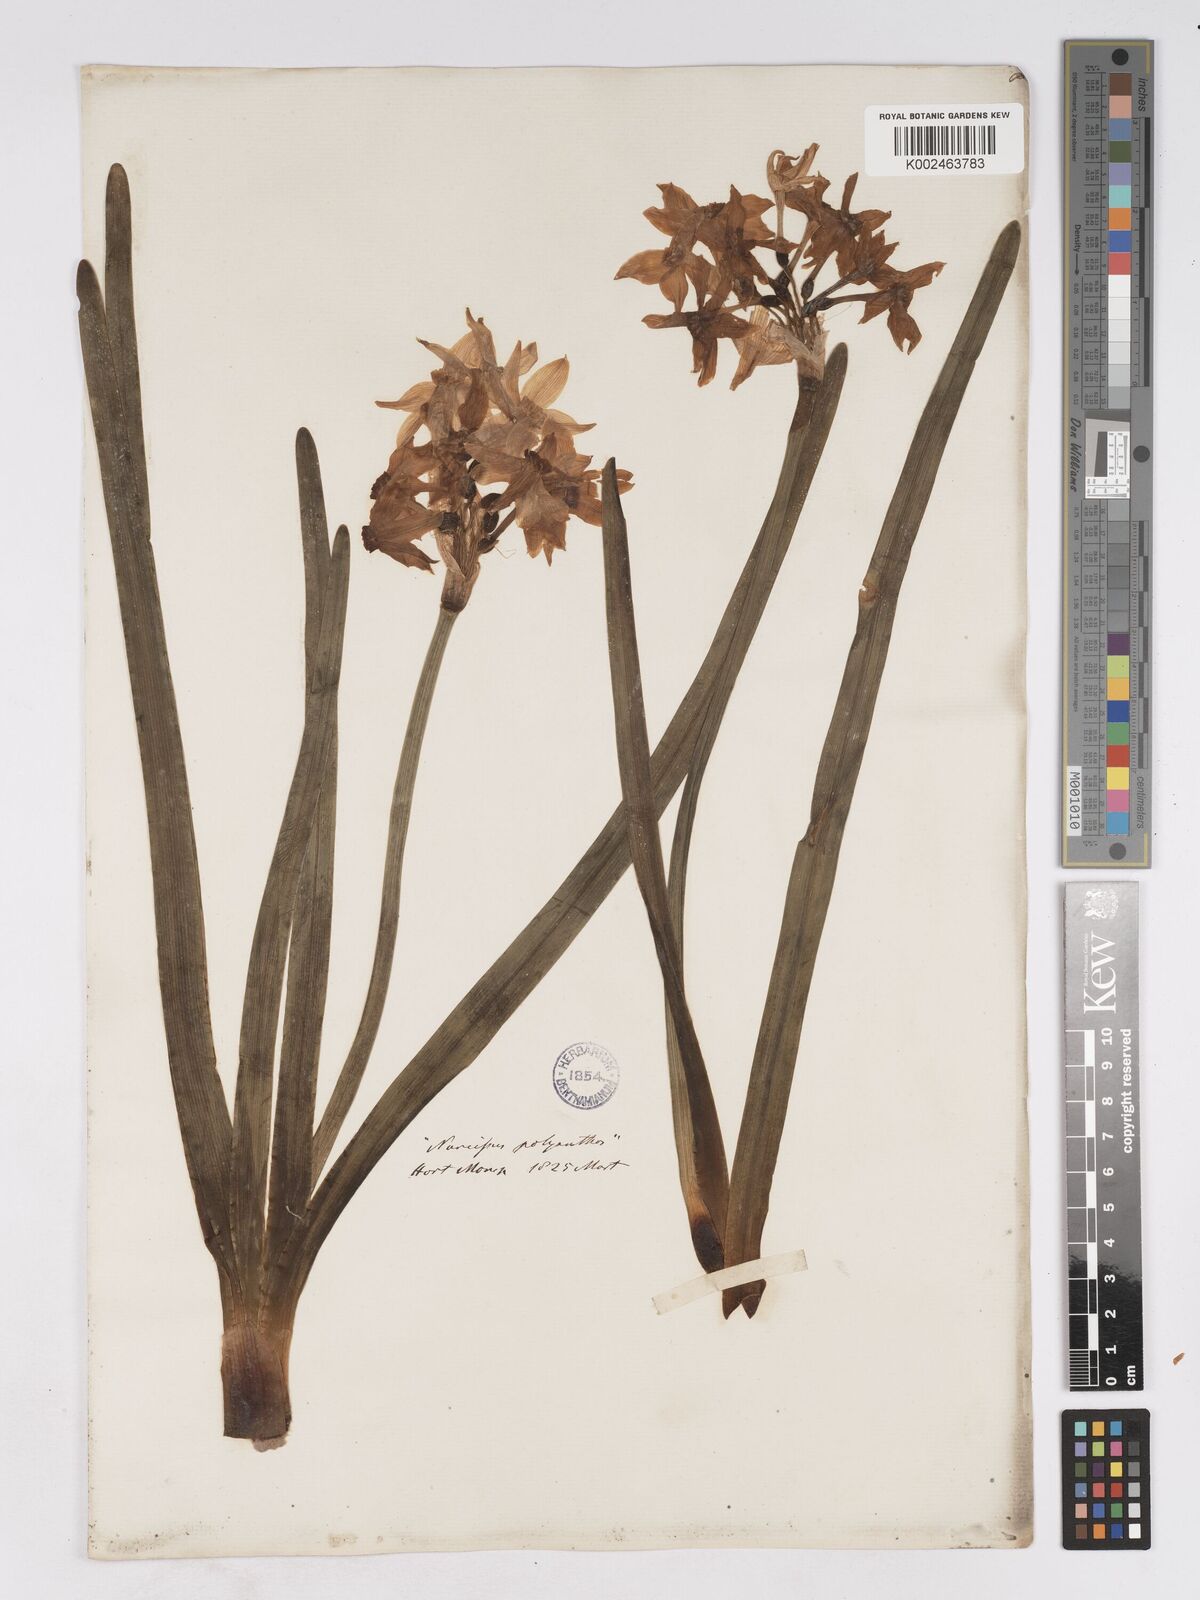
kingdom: Plantae
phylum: Tracheophyta
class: Liliopsida
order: Asparagales
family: Amaryllidaceae
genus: Narcissus
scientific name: Narcissus
